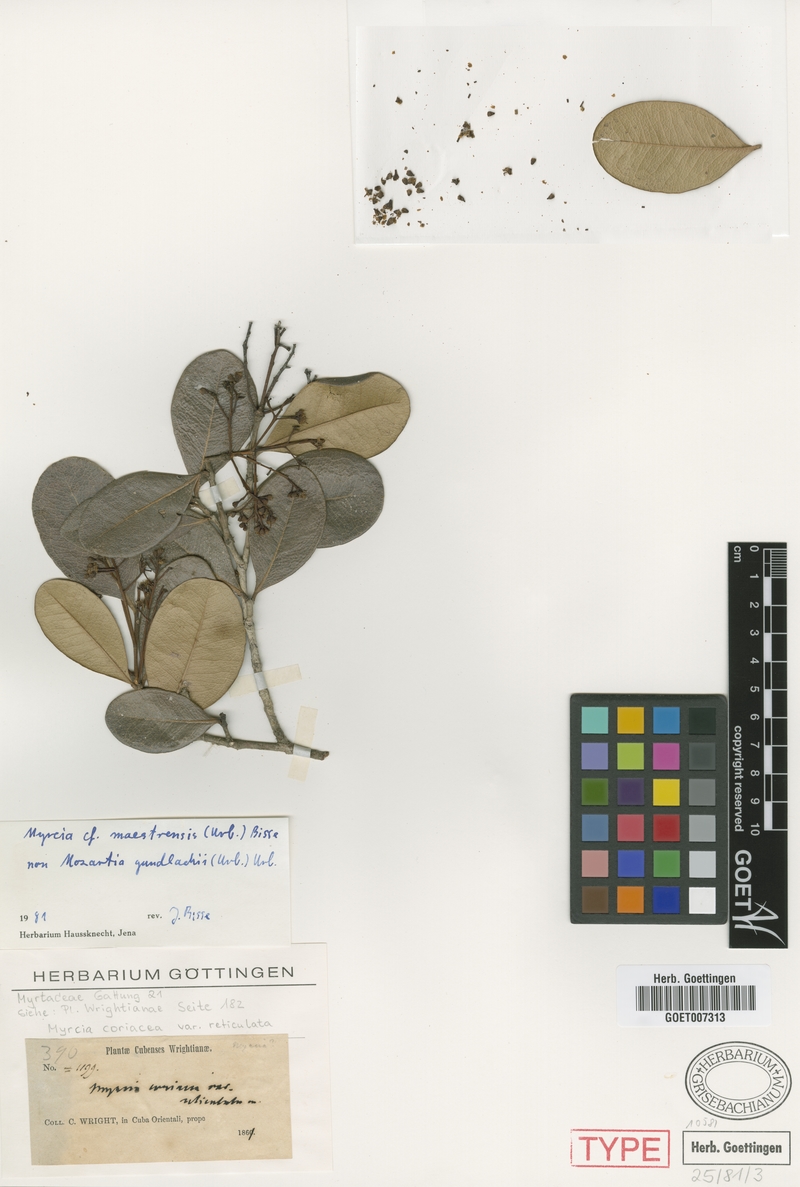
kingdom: Plantae
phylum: Tracheophyta
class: Magnoliopsida
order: Myrtales
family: Myrtaceae
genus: Myrcia
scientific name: Myrcia gundlachii
